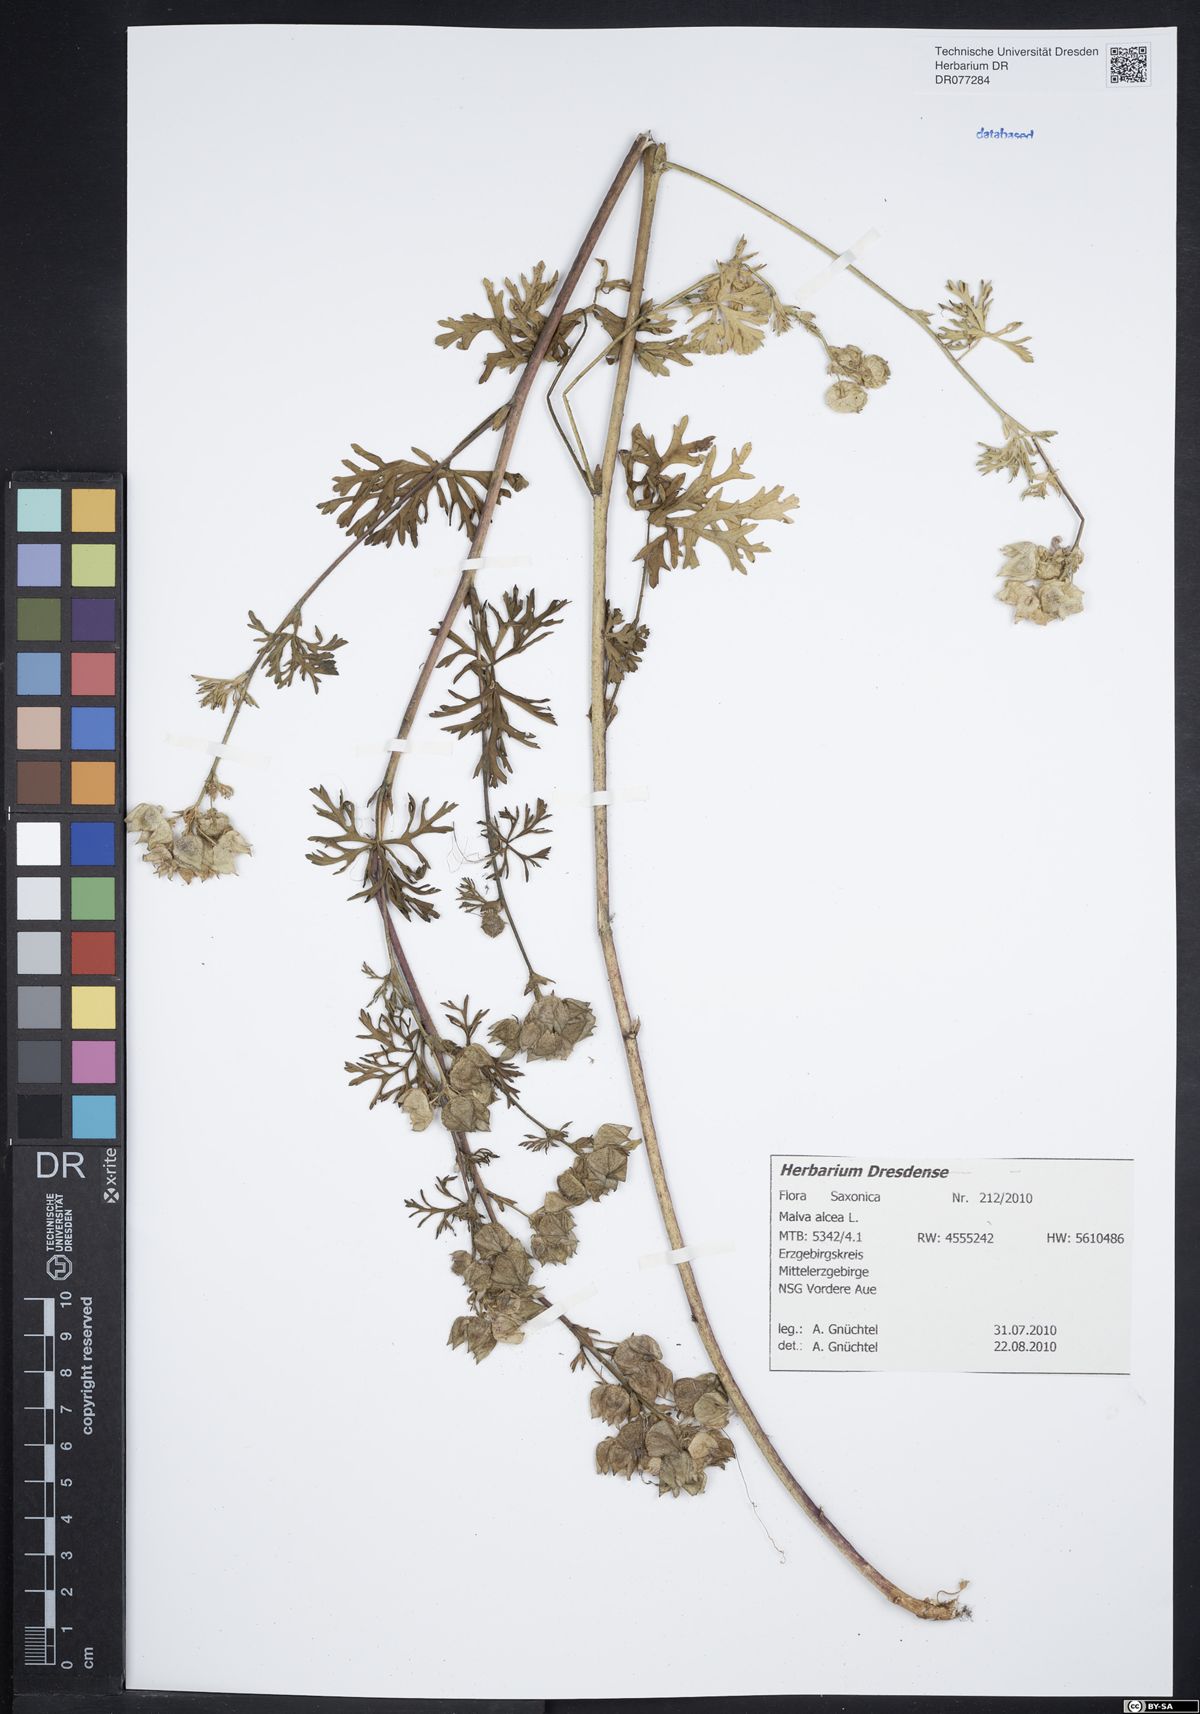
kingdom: Plantae
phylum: Tracheophyta
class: Magnoliopsida
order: Malvales
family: Malvaceae
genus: Malva
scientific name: Malva alcea
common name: Greater musk-mallow
